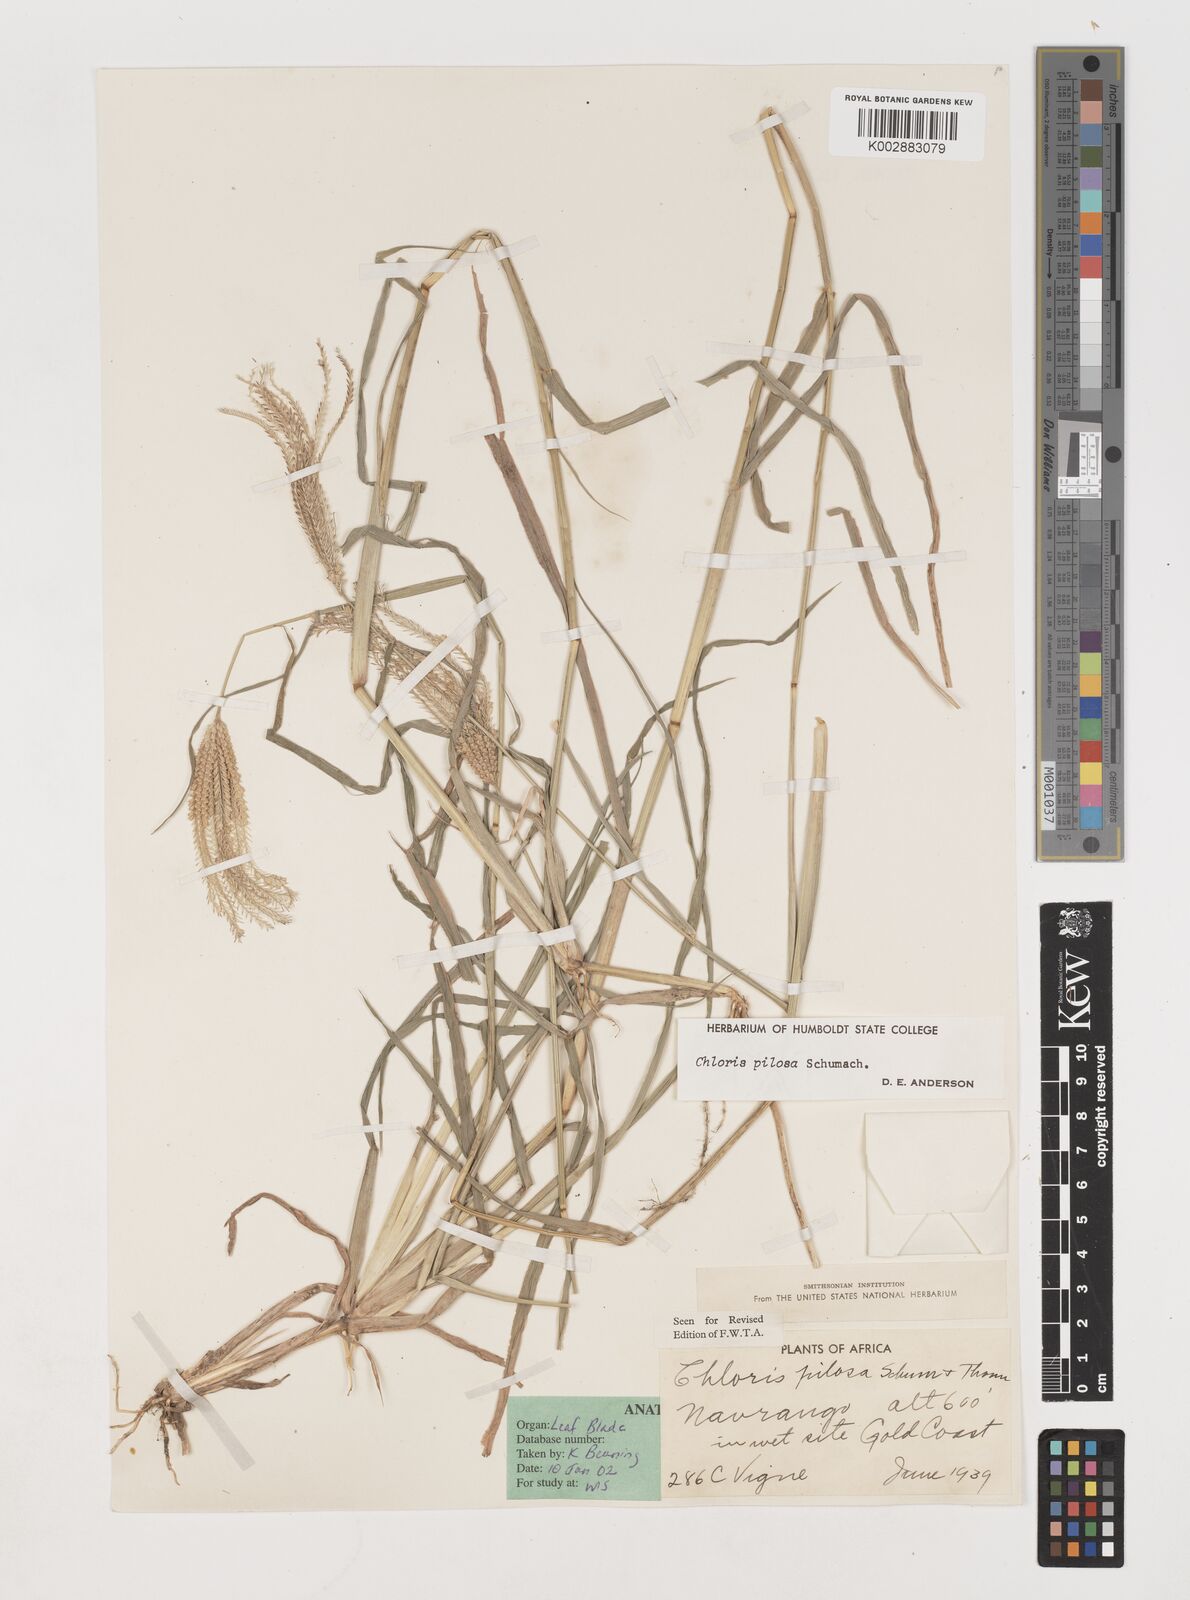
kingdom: Plantae
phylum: Tracheophyta
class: Liliopsida
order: Poales
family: Poaceae
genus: Chloris
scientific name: Chloris pilosa
